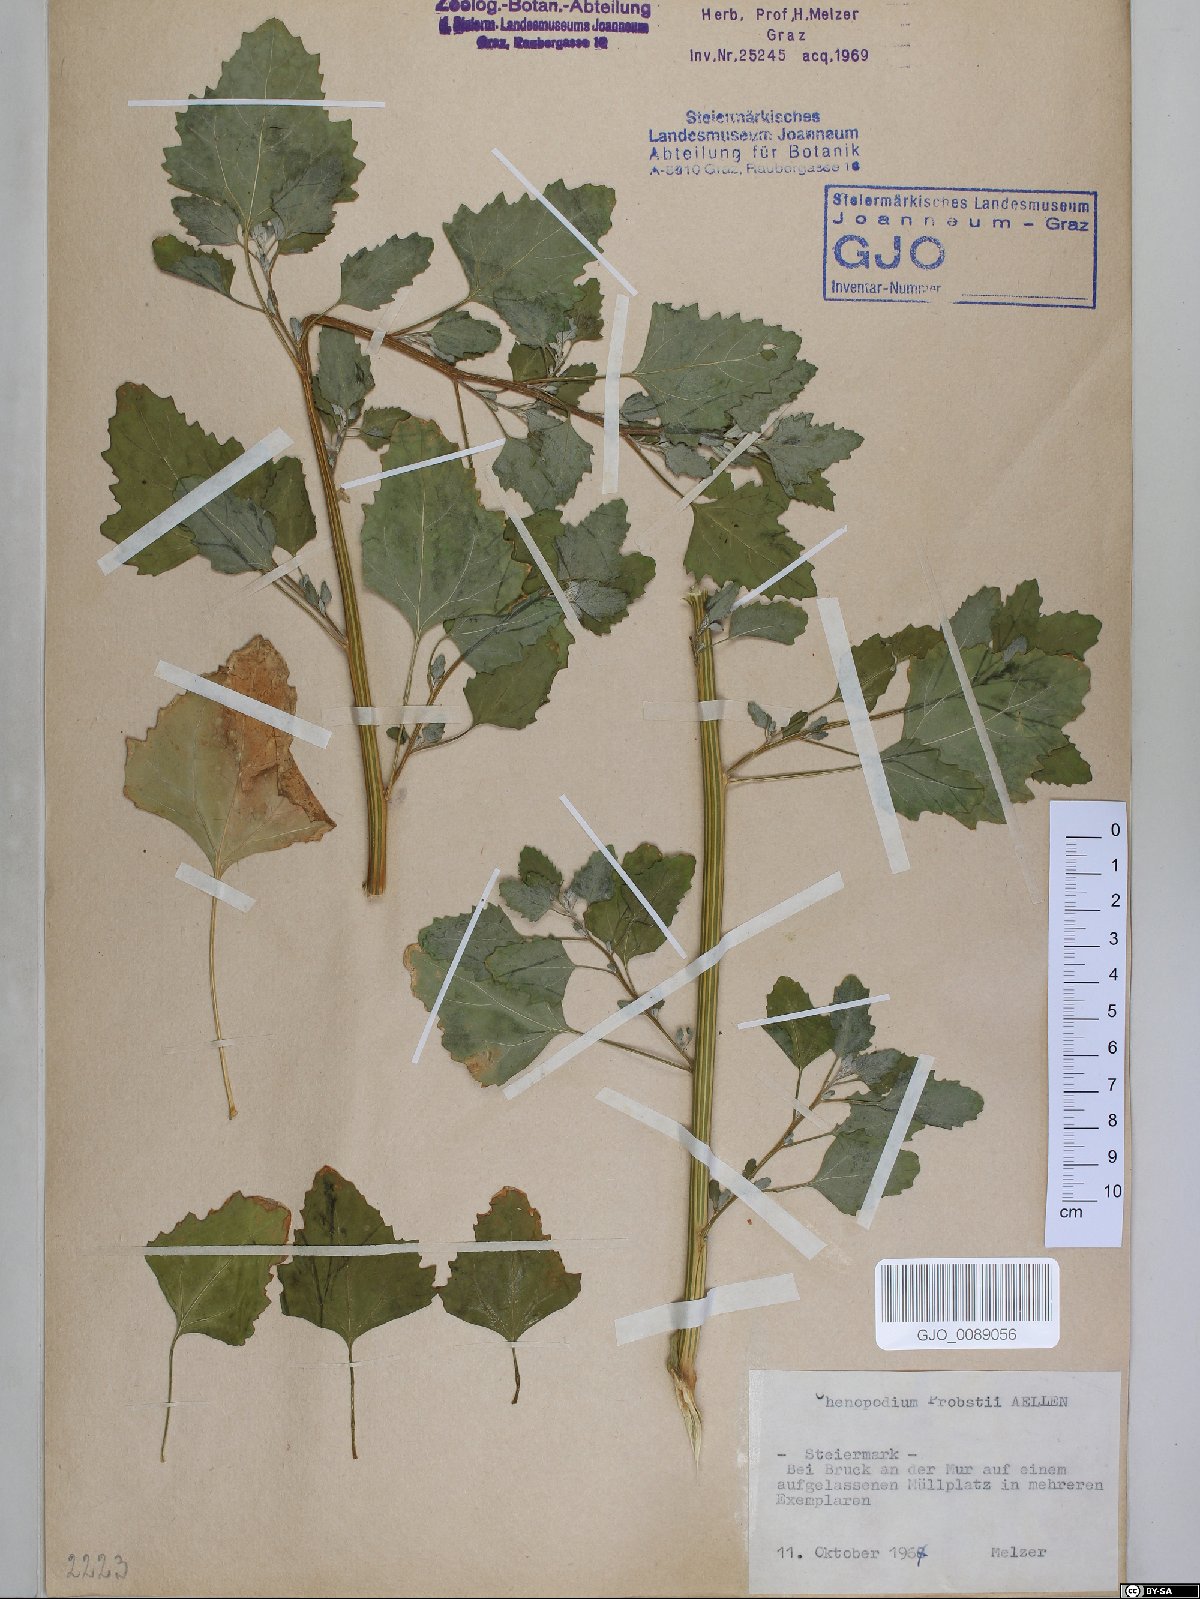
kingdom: Plantae
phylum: Tracheophyta
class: Magnoliopsida
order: Caryophyllales
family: Amaranthaceae
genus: Chenopodium
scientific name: Chenopodium probstii
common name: Probst's goosefoot
